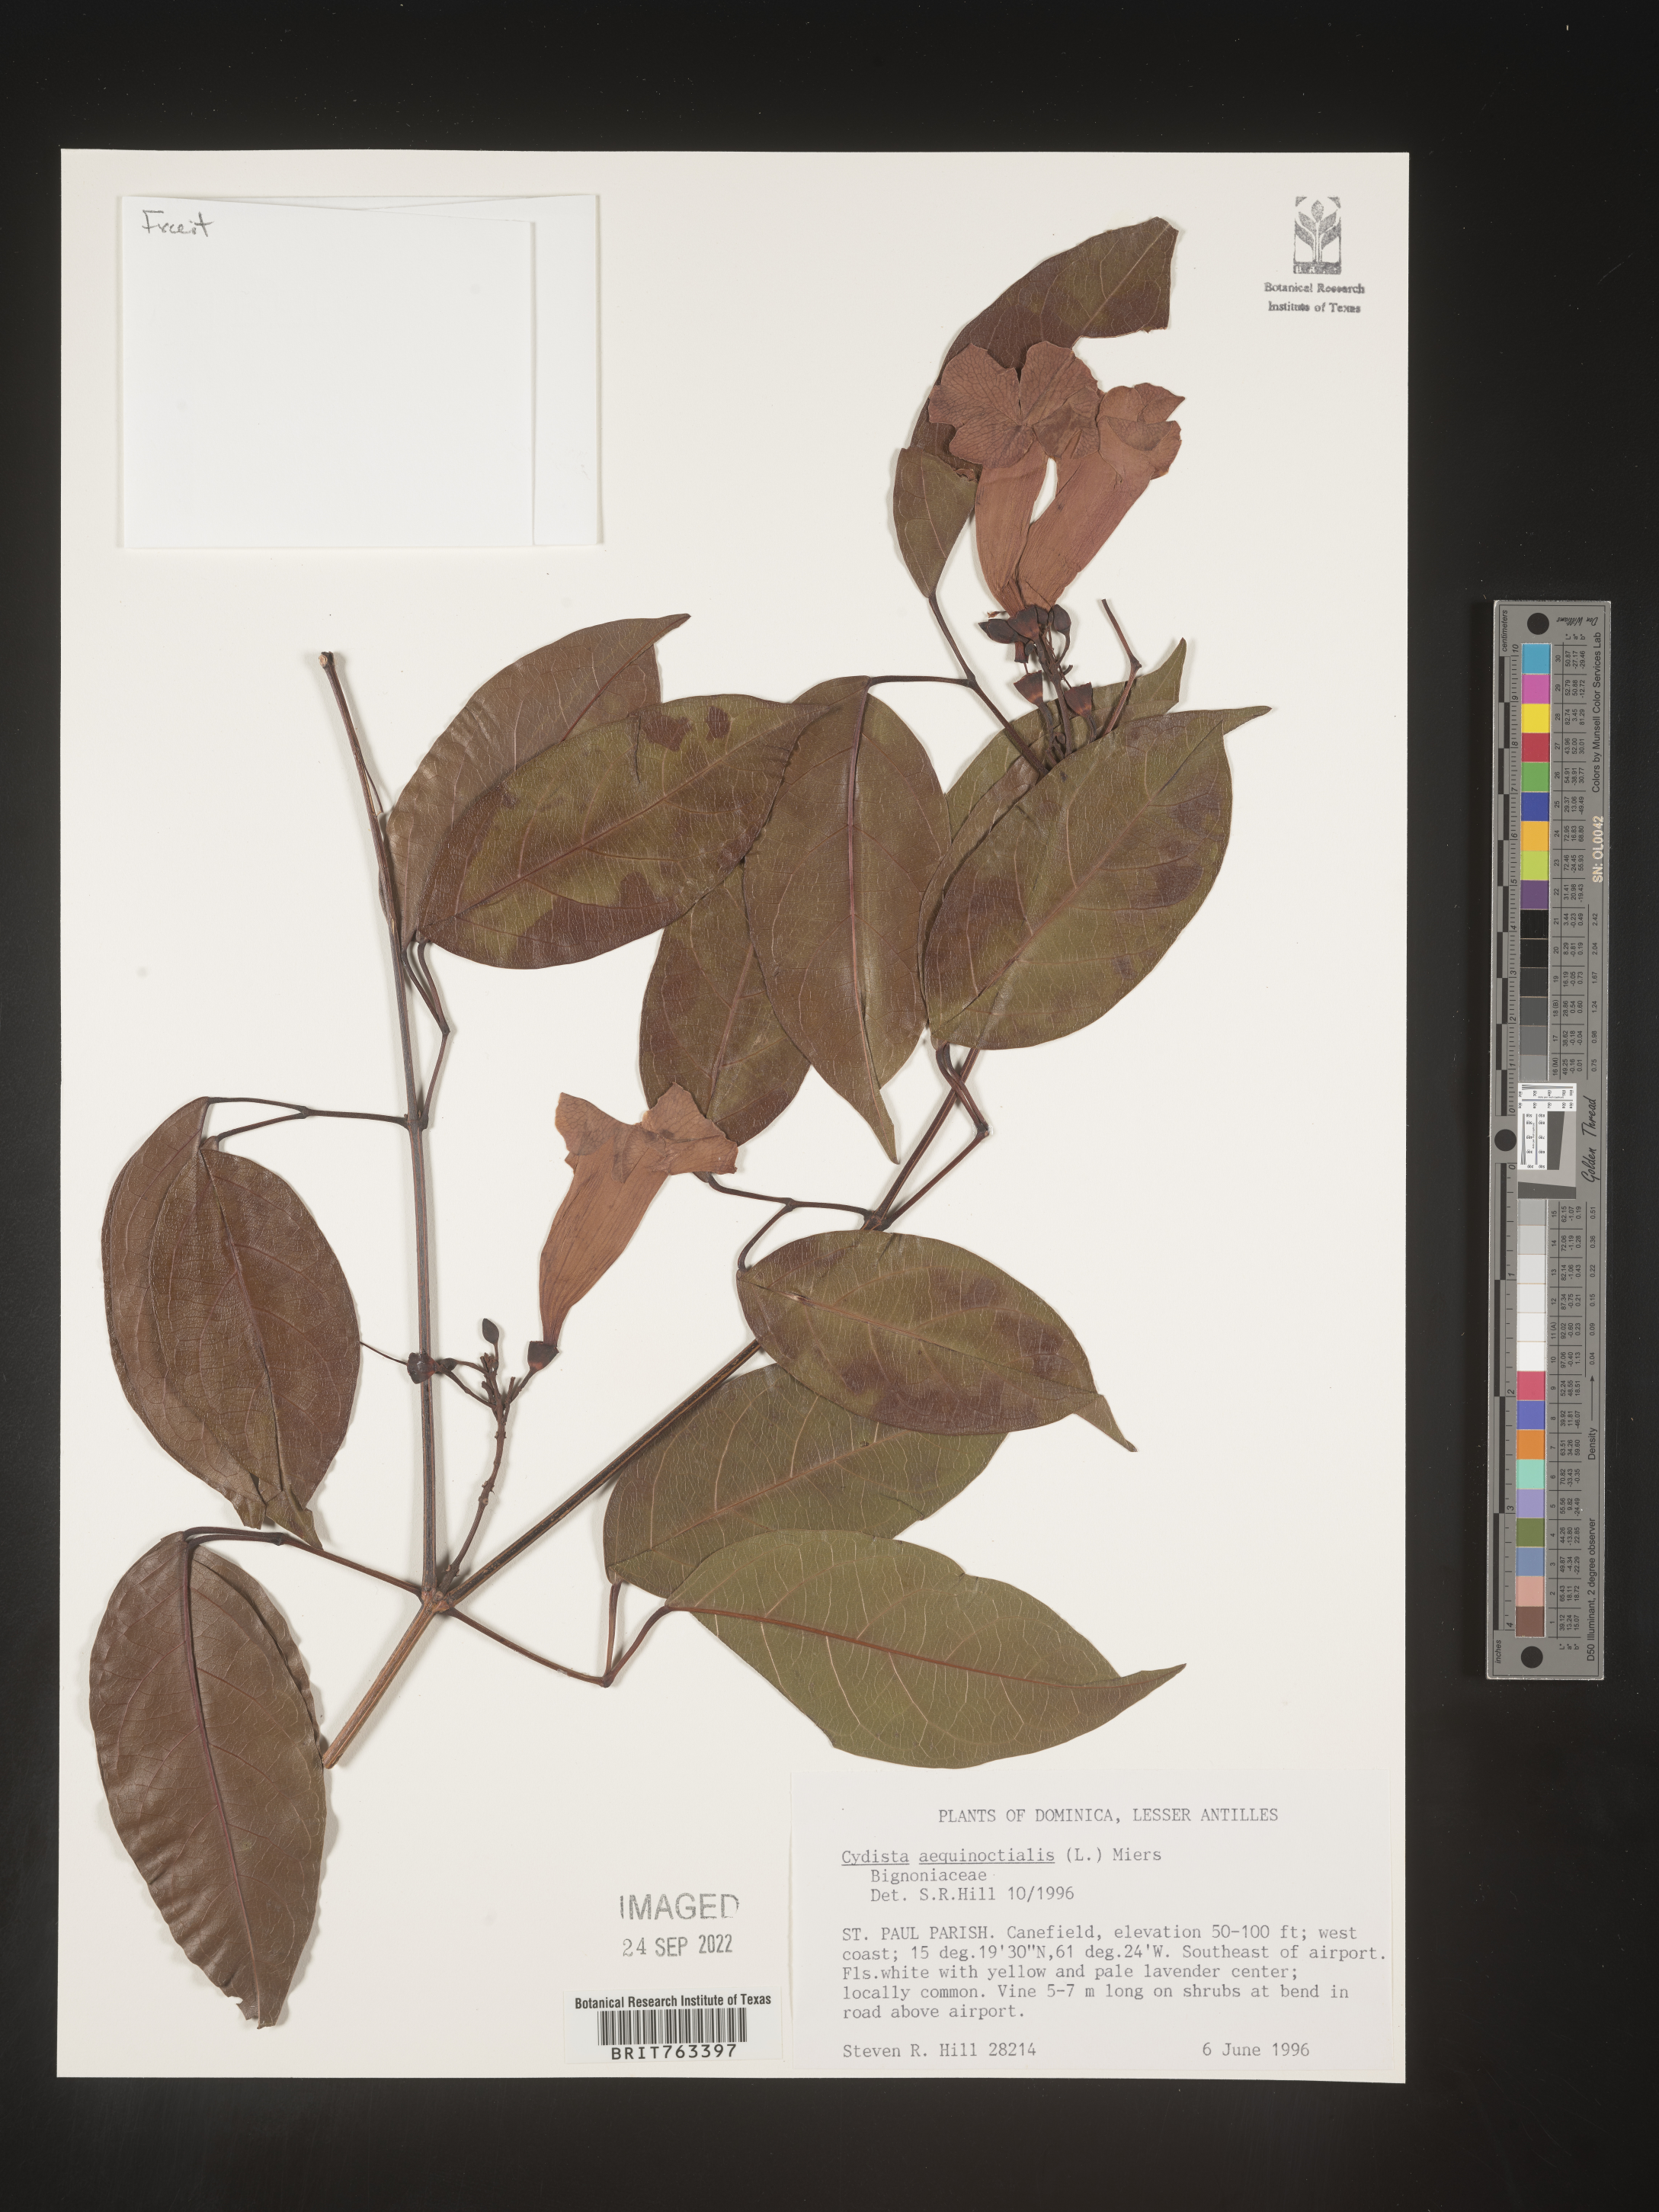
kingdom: Plantae
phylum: Tracheophyta
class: Magnoliopsida
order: Lamiales
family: Bignoniaceae
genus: Bignonia
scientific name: Bignonia
